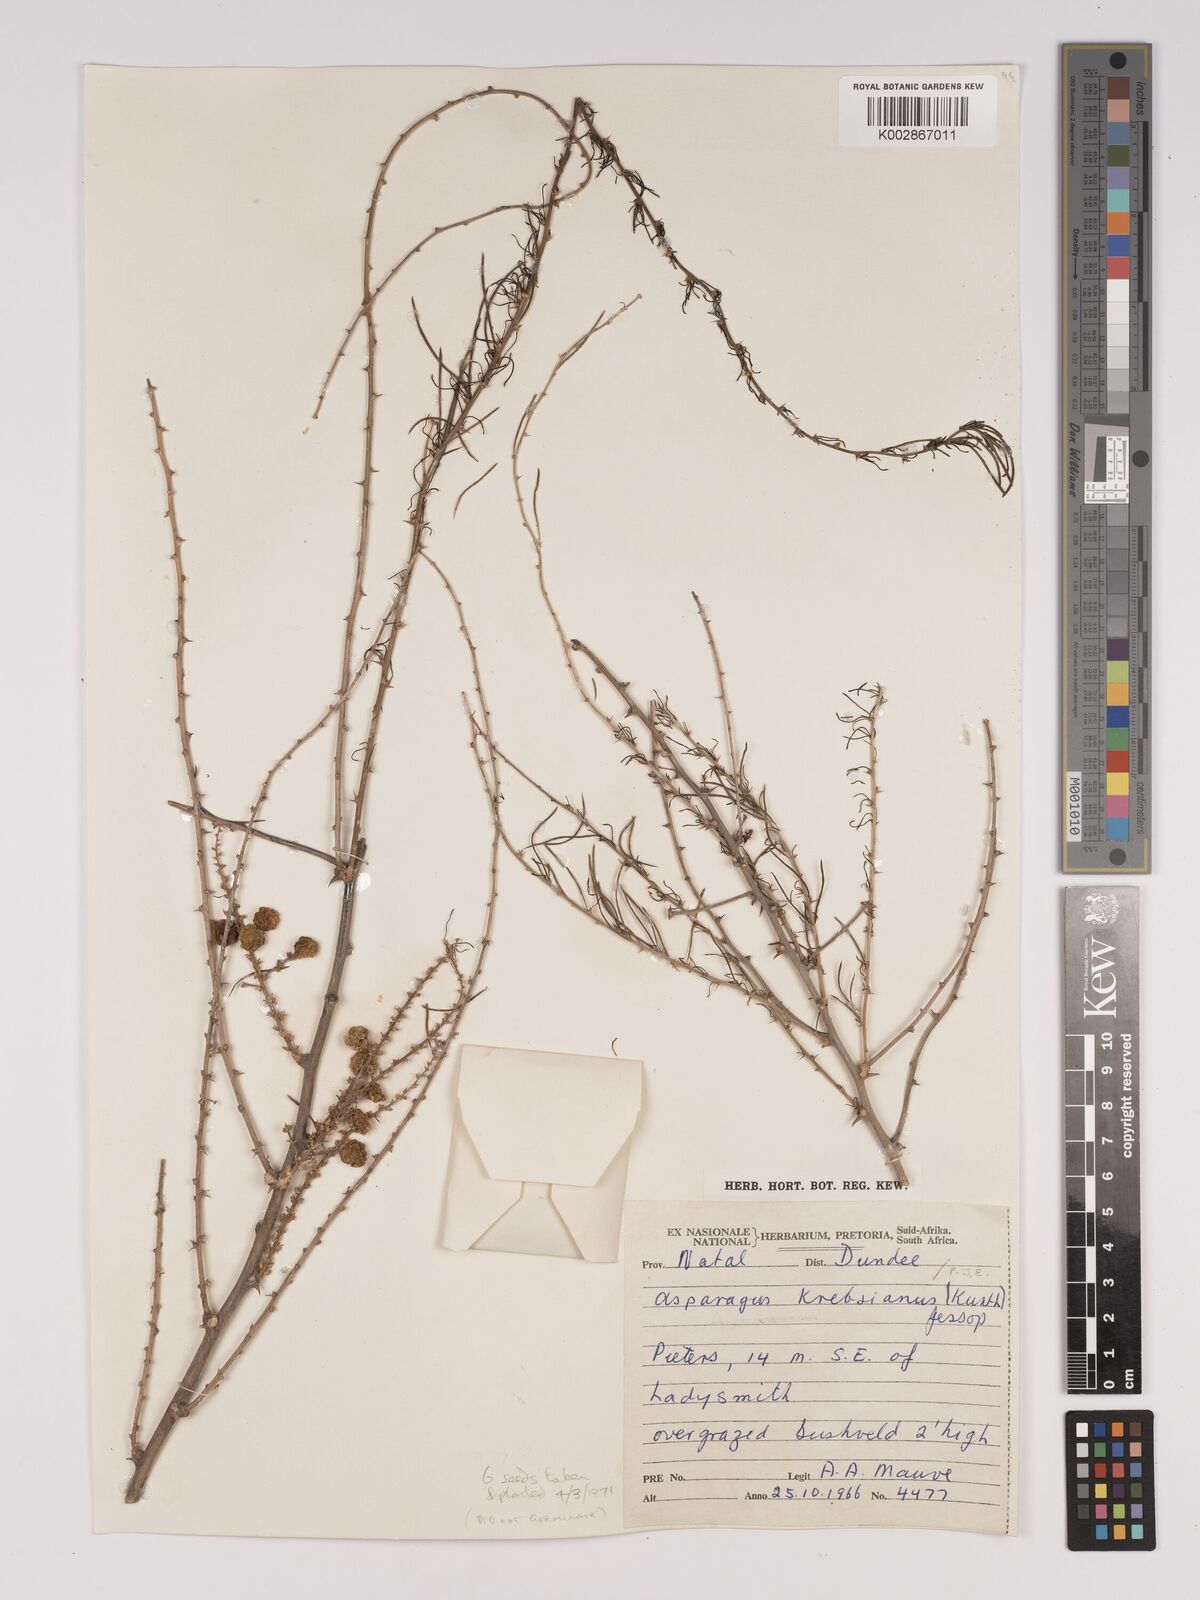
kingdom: Plantae
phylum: Tracheophyta
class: Liliopsida
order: Asparagales
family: Asparagaceae
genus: Asparagus
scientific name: Asparagus krebsianus
